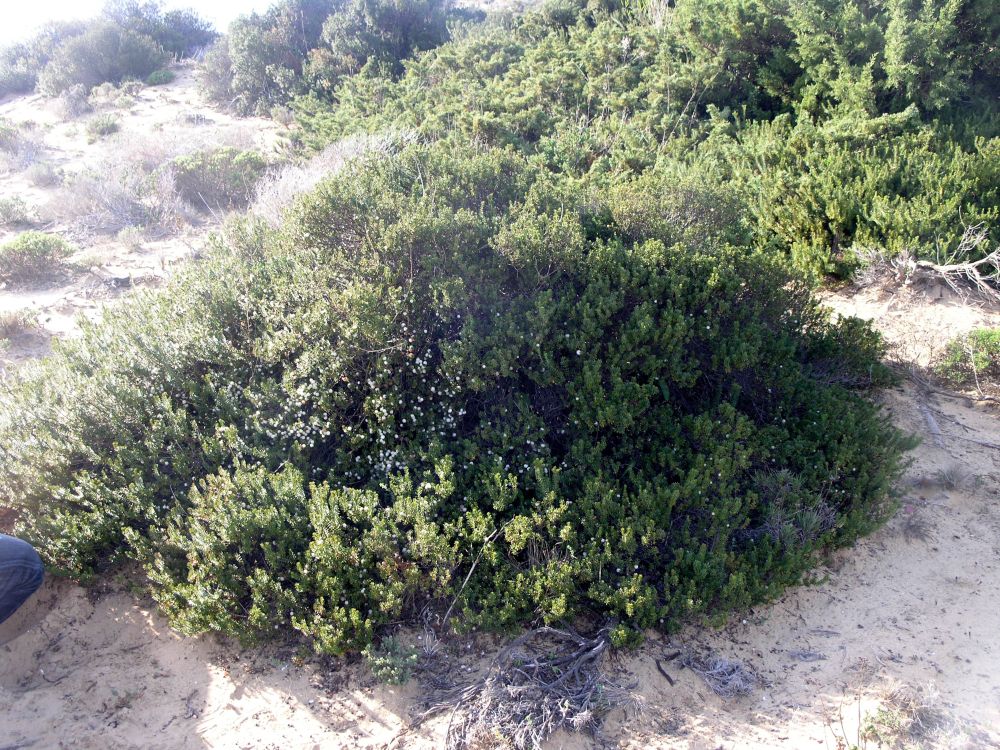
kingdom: Plantae
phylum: Tracheophyta
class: Magnoliopsida
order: Ericales
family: Ericaceae
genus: Corema
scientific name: Corema album
